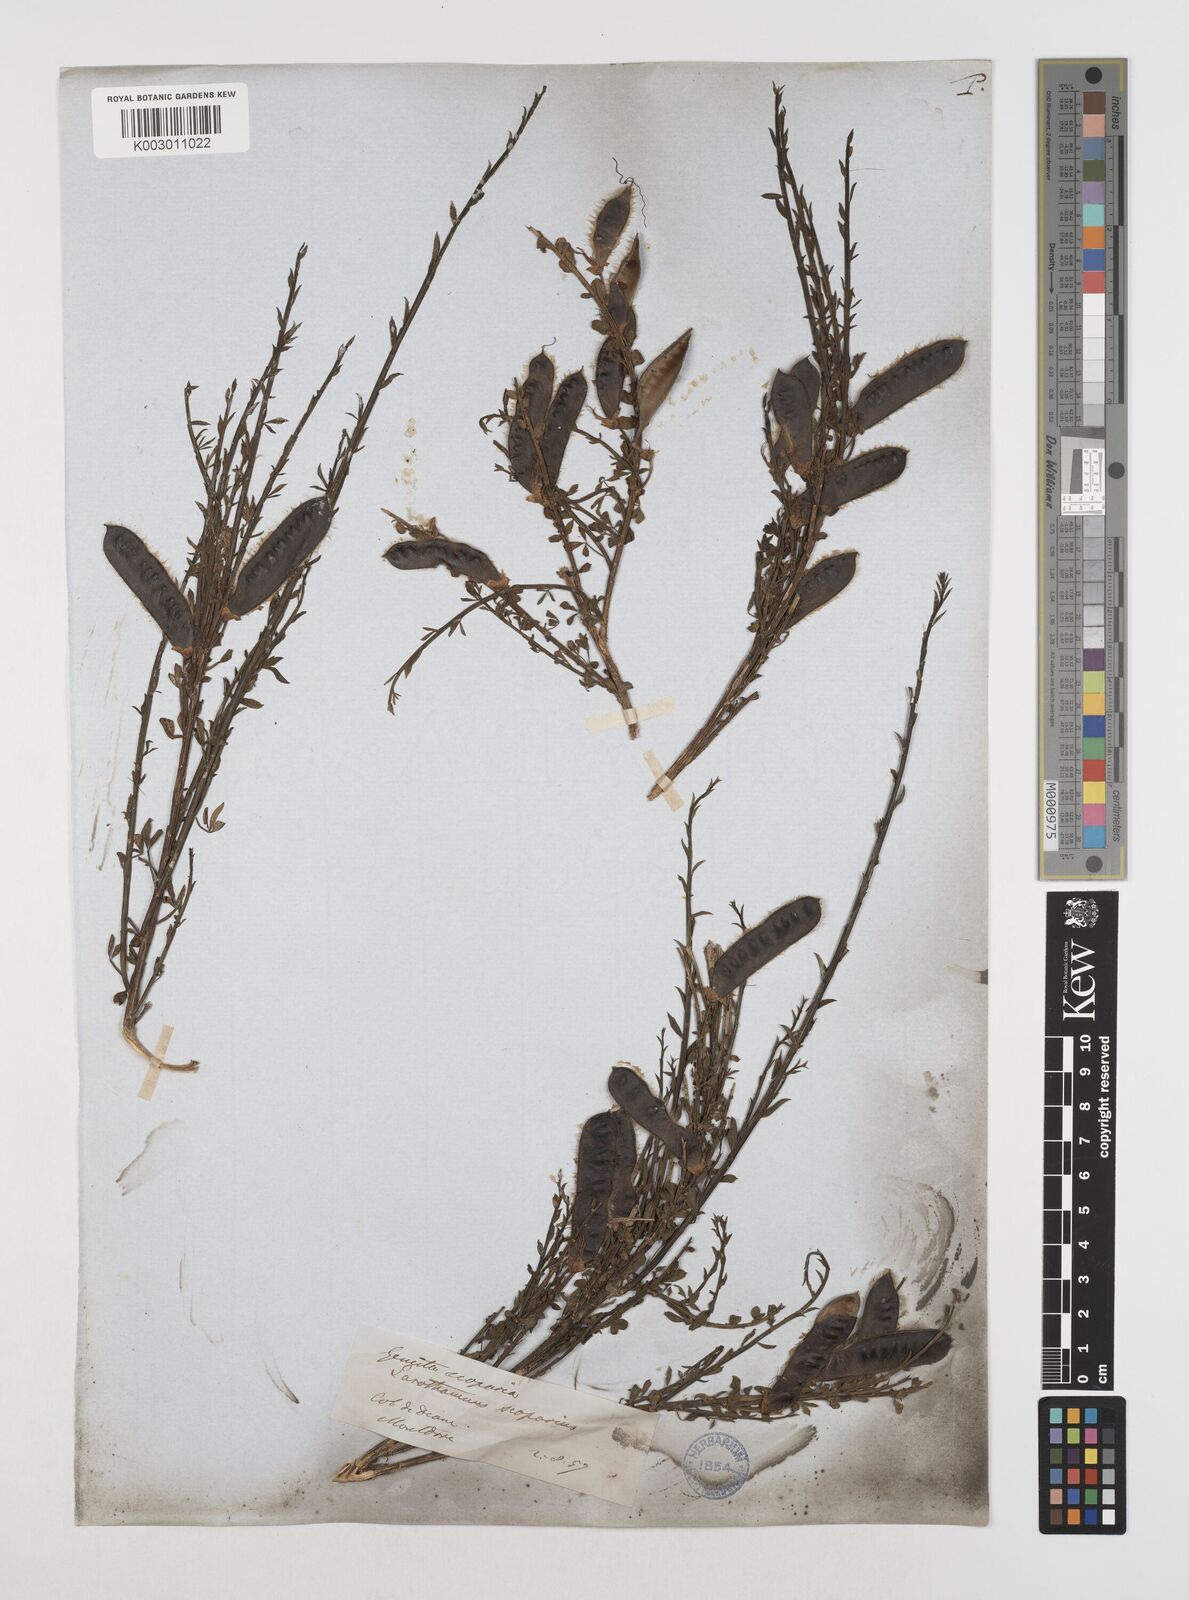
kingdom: Plantae
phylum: Tracheophyta
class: Magnoliopsida
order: Fabales
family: Fabaceae
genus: Cytisus
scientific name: Cytisus scoparius
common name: Scotch broom
